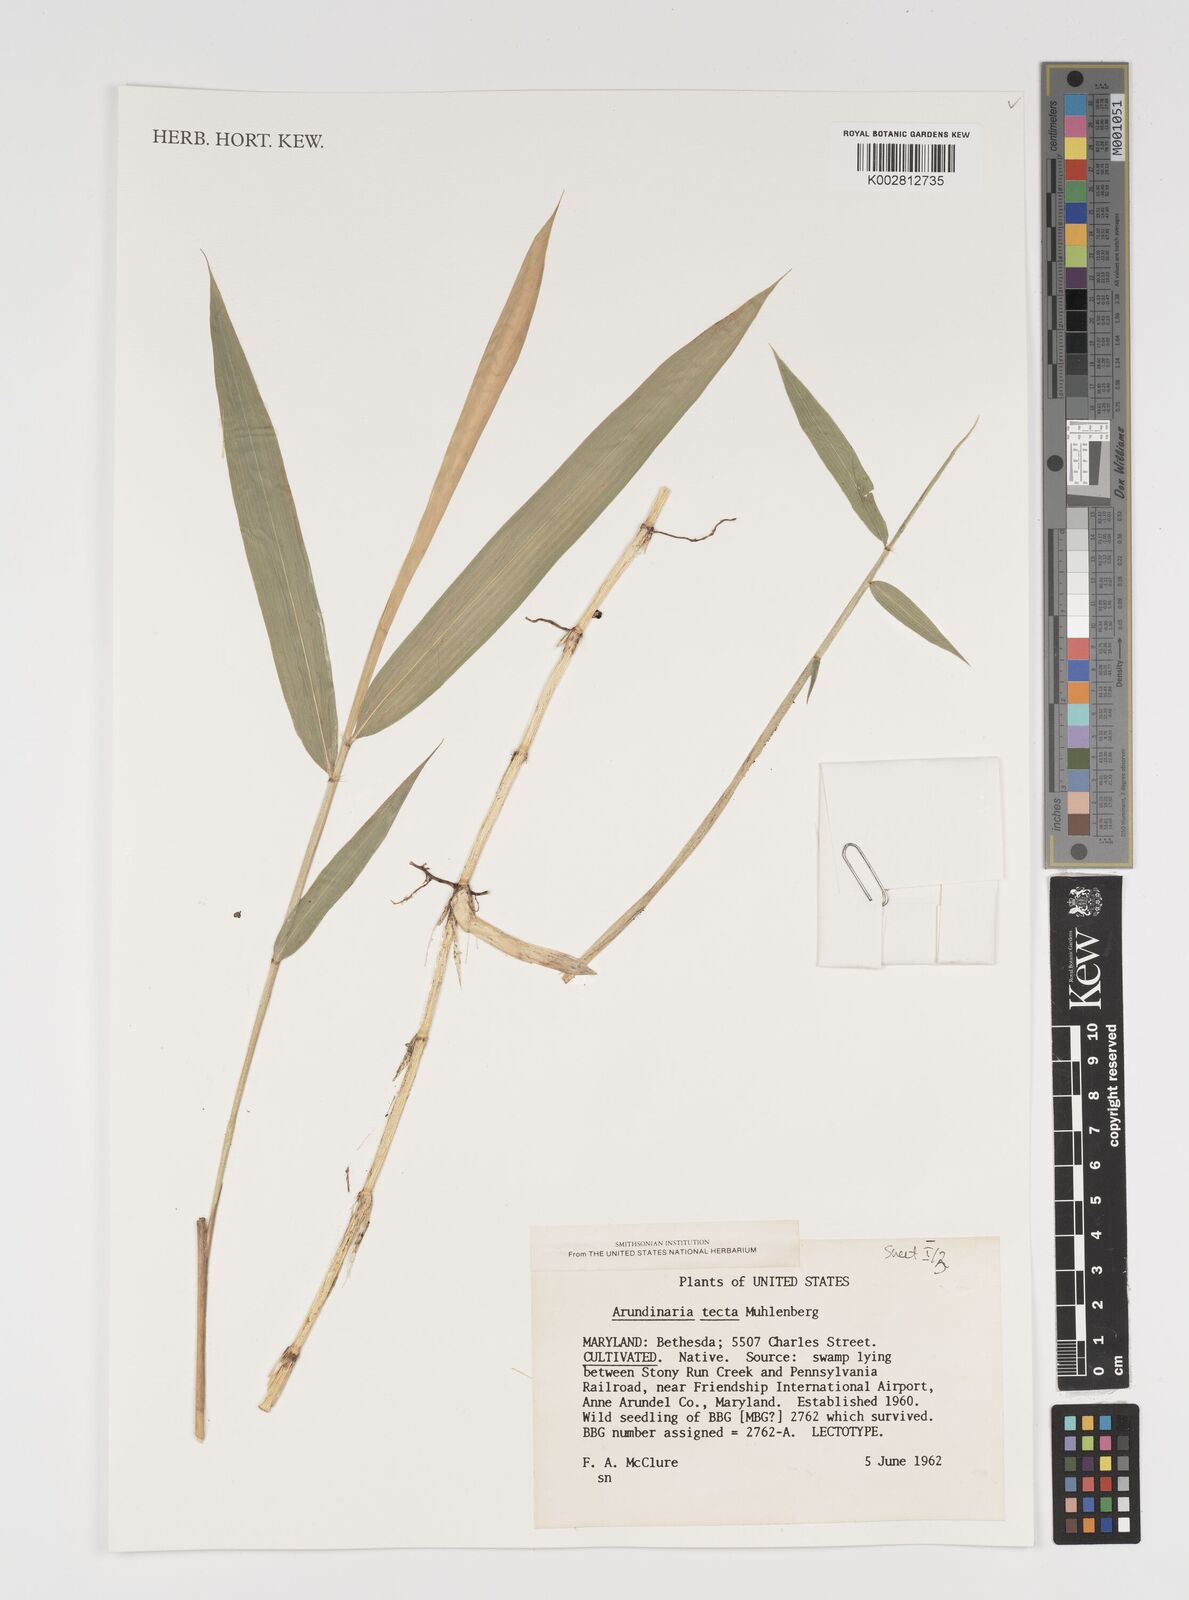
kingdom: Plantae
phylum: Tracheophyta
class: Liliopsida
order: Poales
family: Poaceae
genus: Arundinaria
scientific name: Arundinaria tecta
